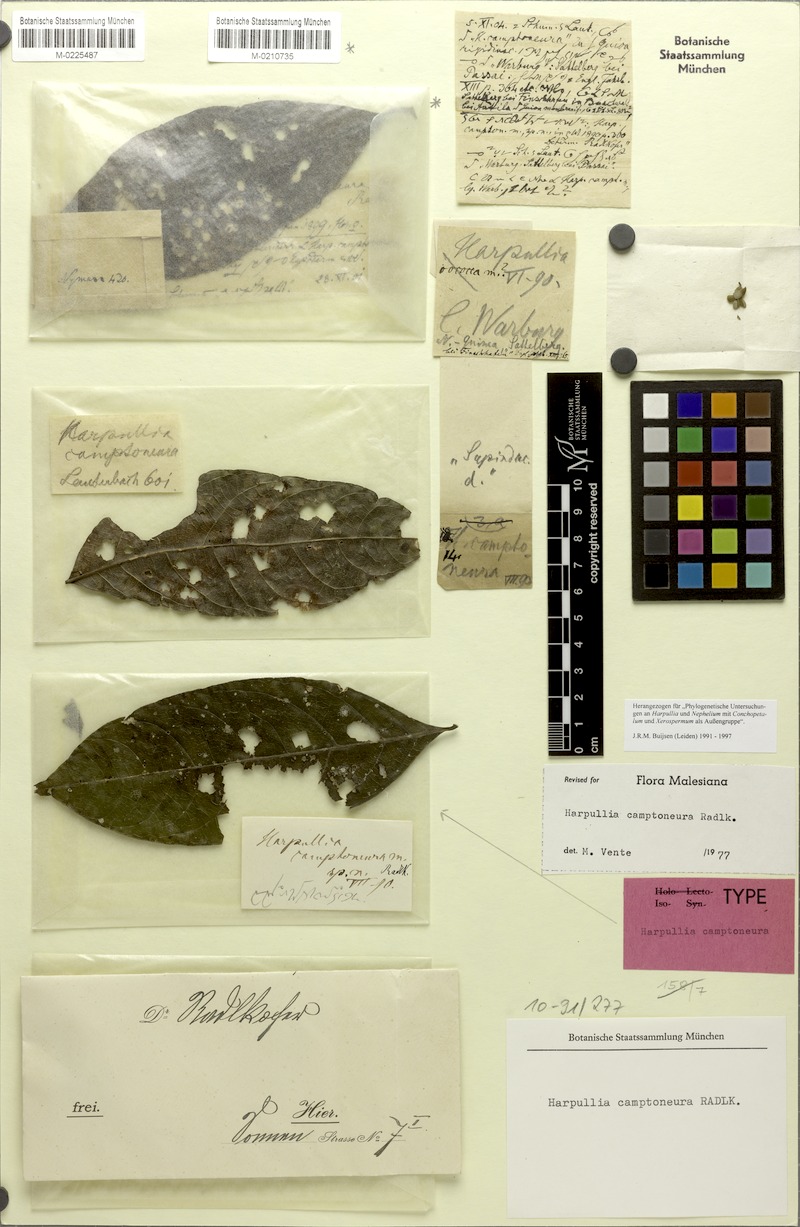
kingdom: Plantae
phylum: Tracheophyta
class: Magnoliopsida
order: Sapindales
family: Sapindaceae
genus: Harpullia
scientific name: Harpullia camptoneura
